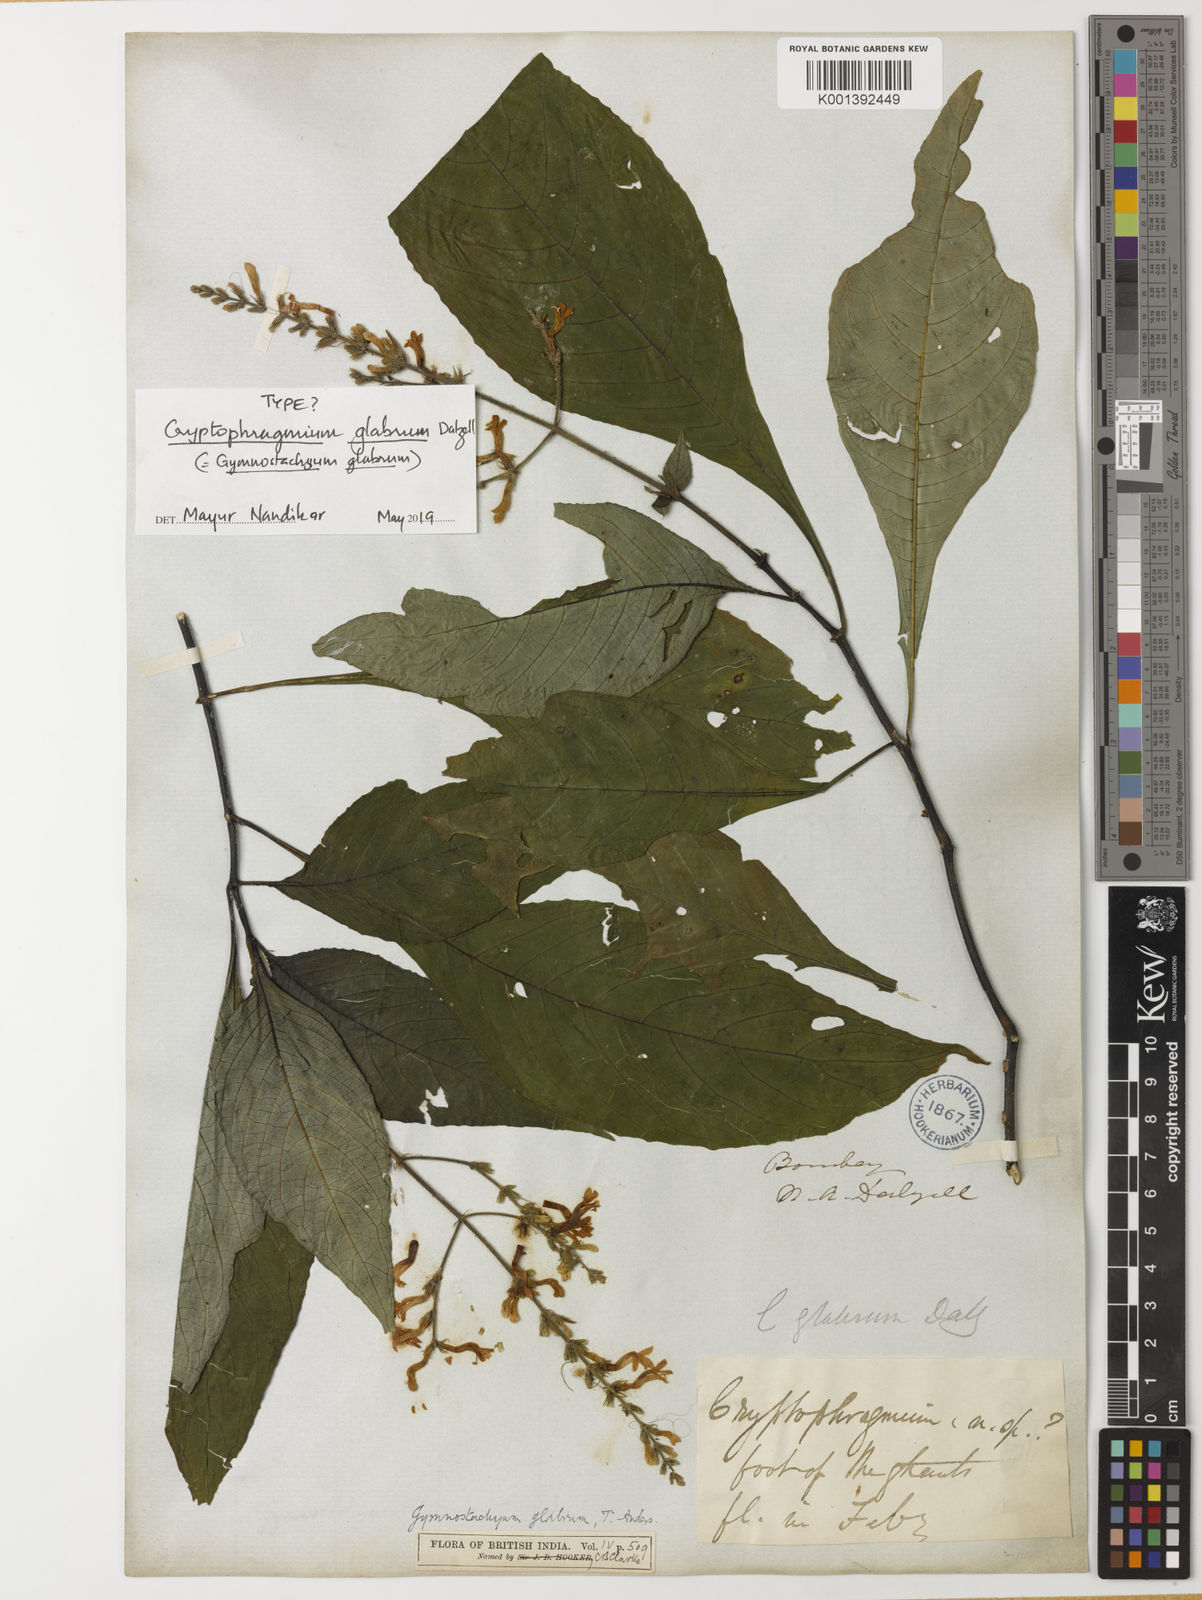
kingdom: Plantae
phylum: Tracheophyta
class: Magnoliopsida
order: Lamiales
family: Acanthaceae
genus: Gymnostachyum
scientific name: Gymnostachyum glabrum
